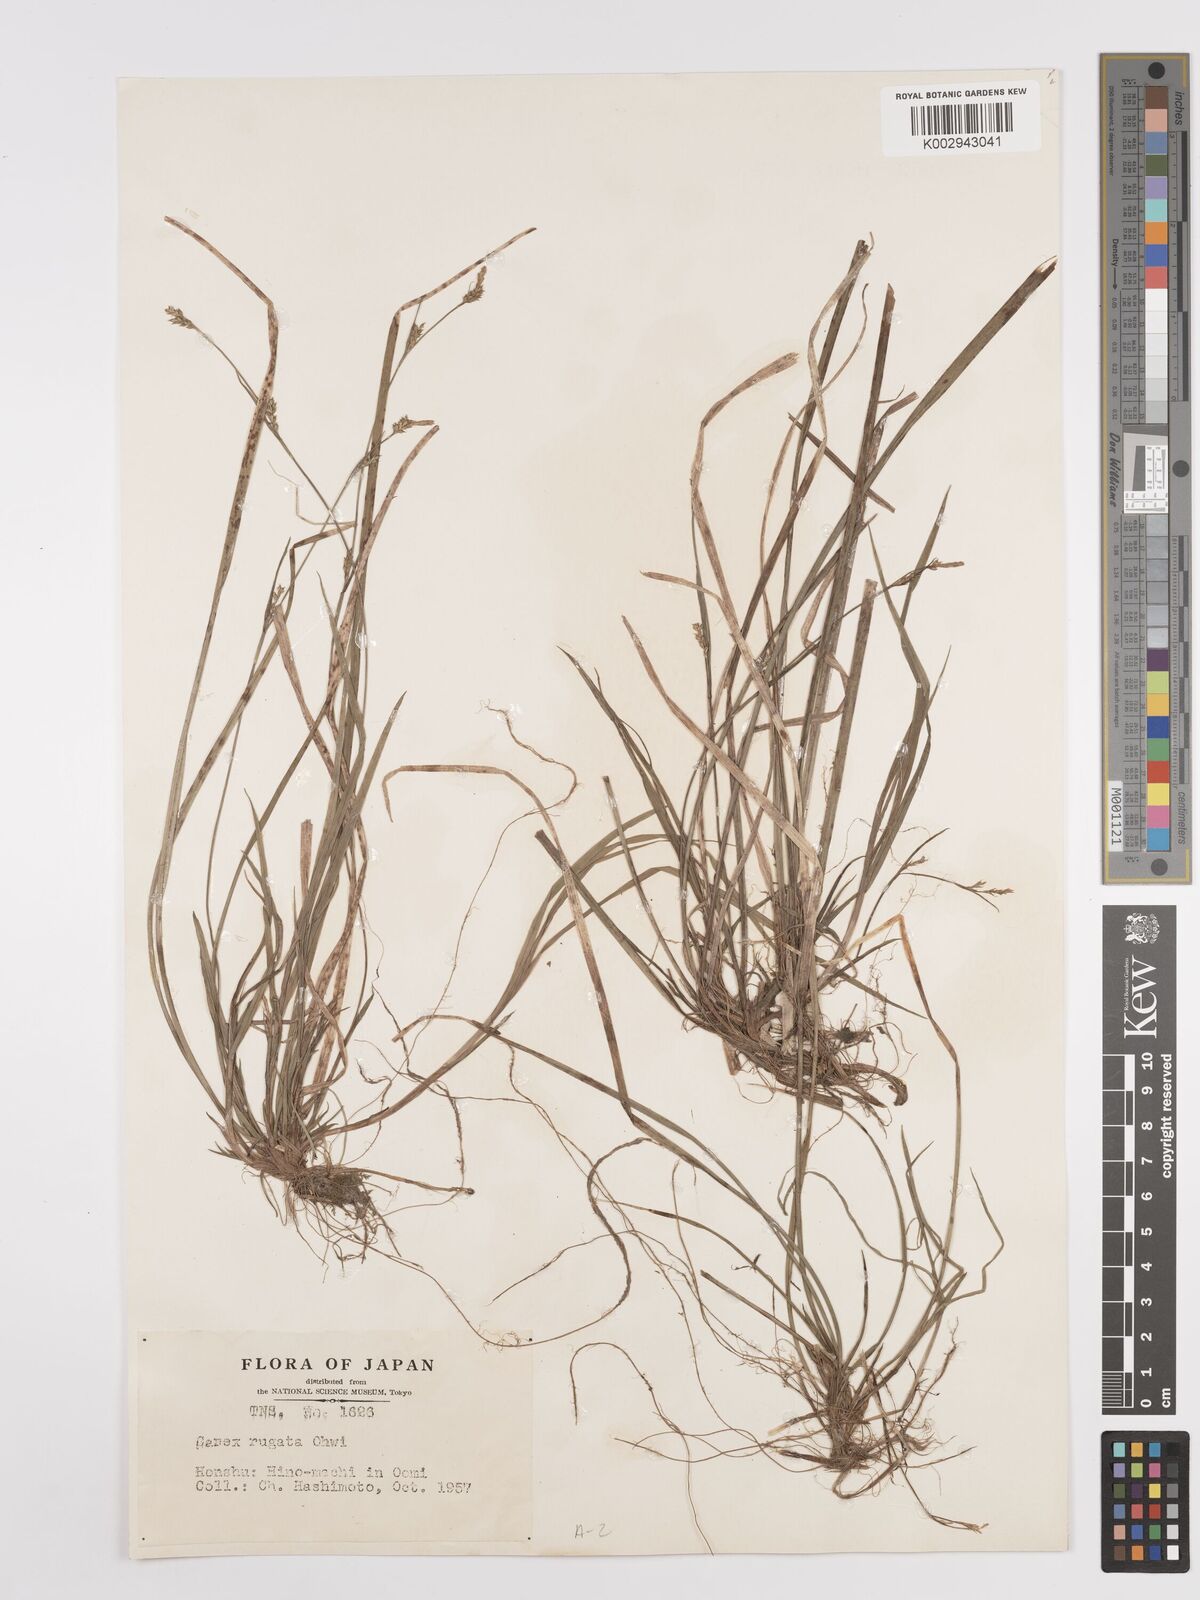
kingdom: Plantae
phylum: Tracheophyta
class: Liliopsida
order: Poales
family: Cyperaceae
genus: Carex
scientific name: Carex rugata
